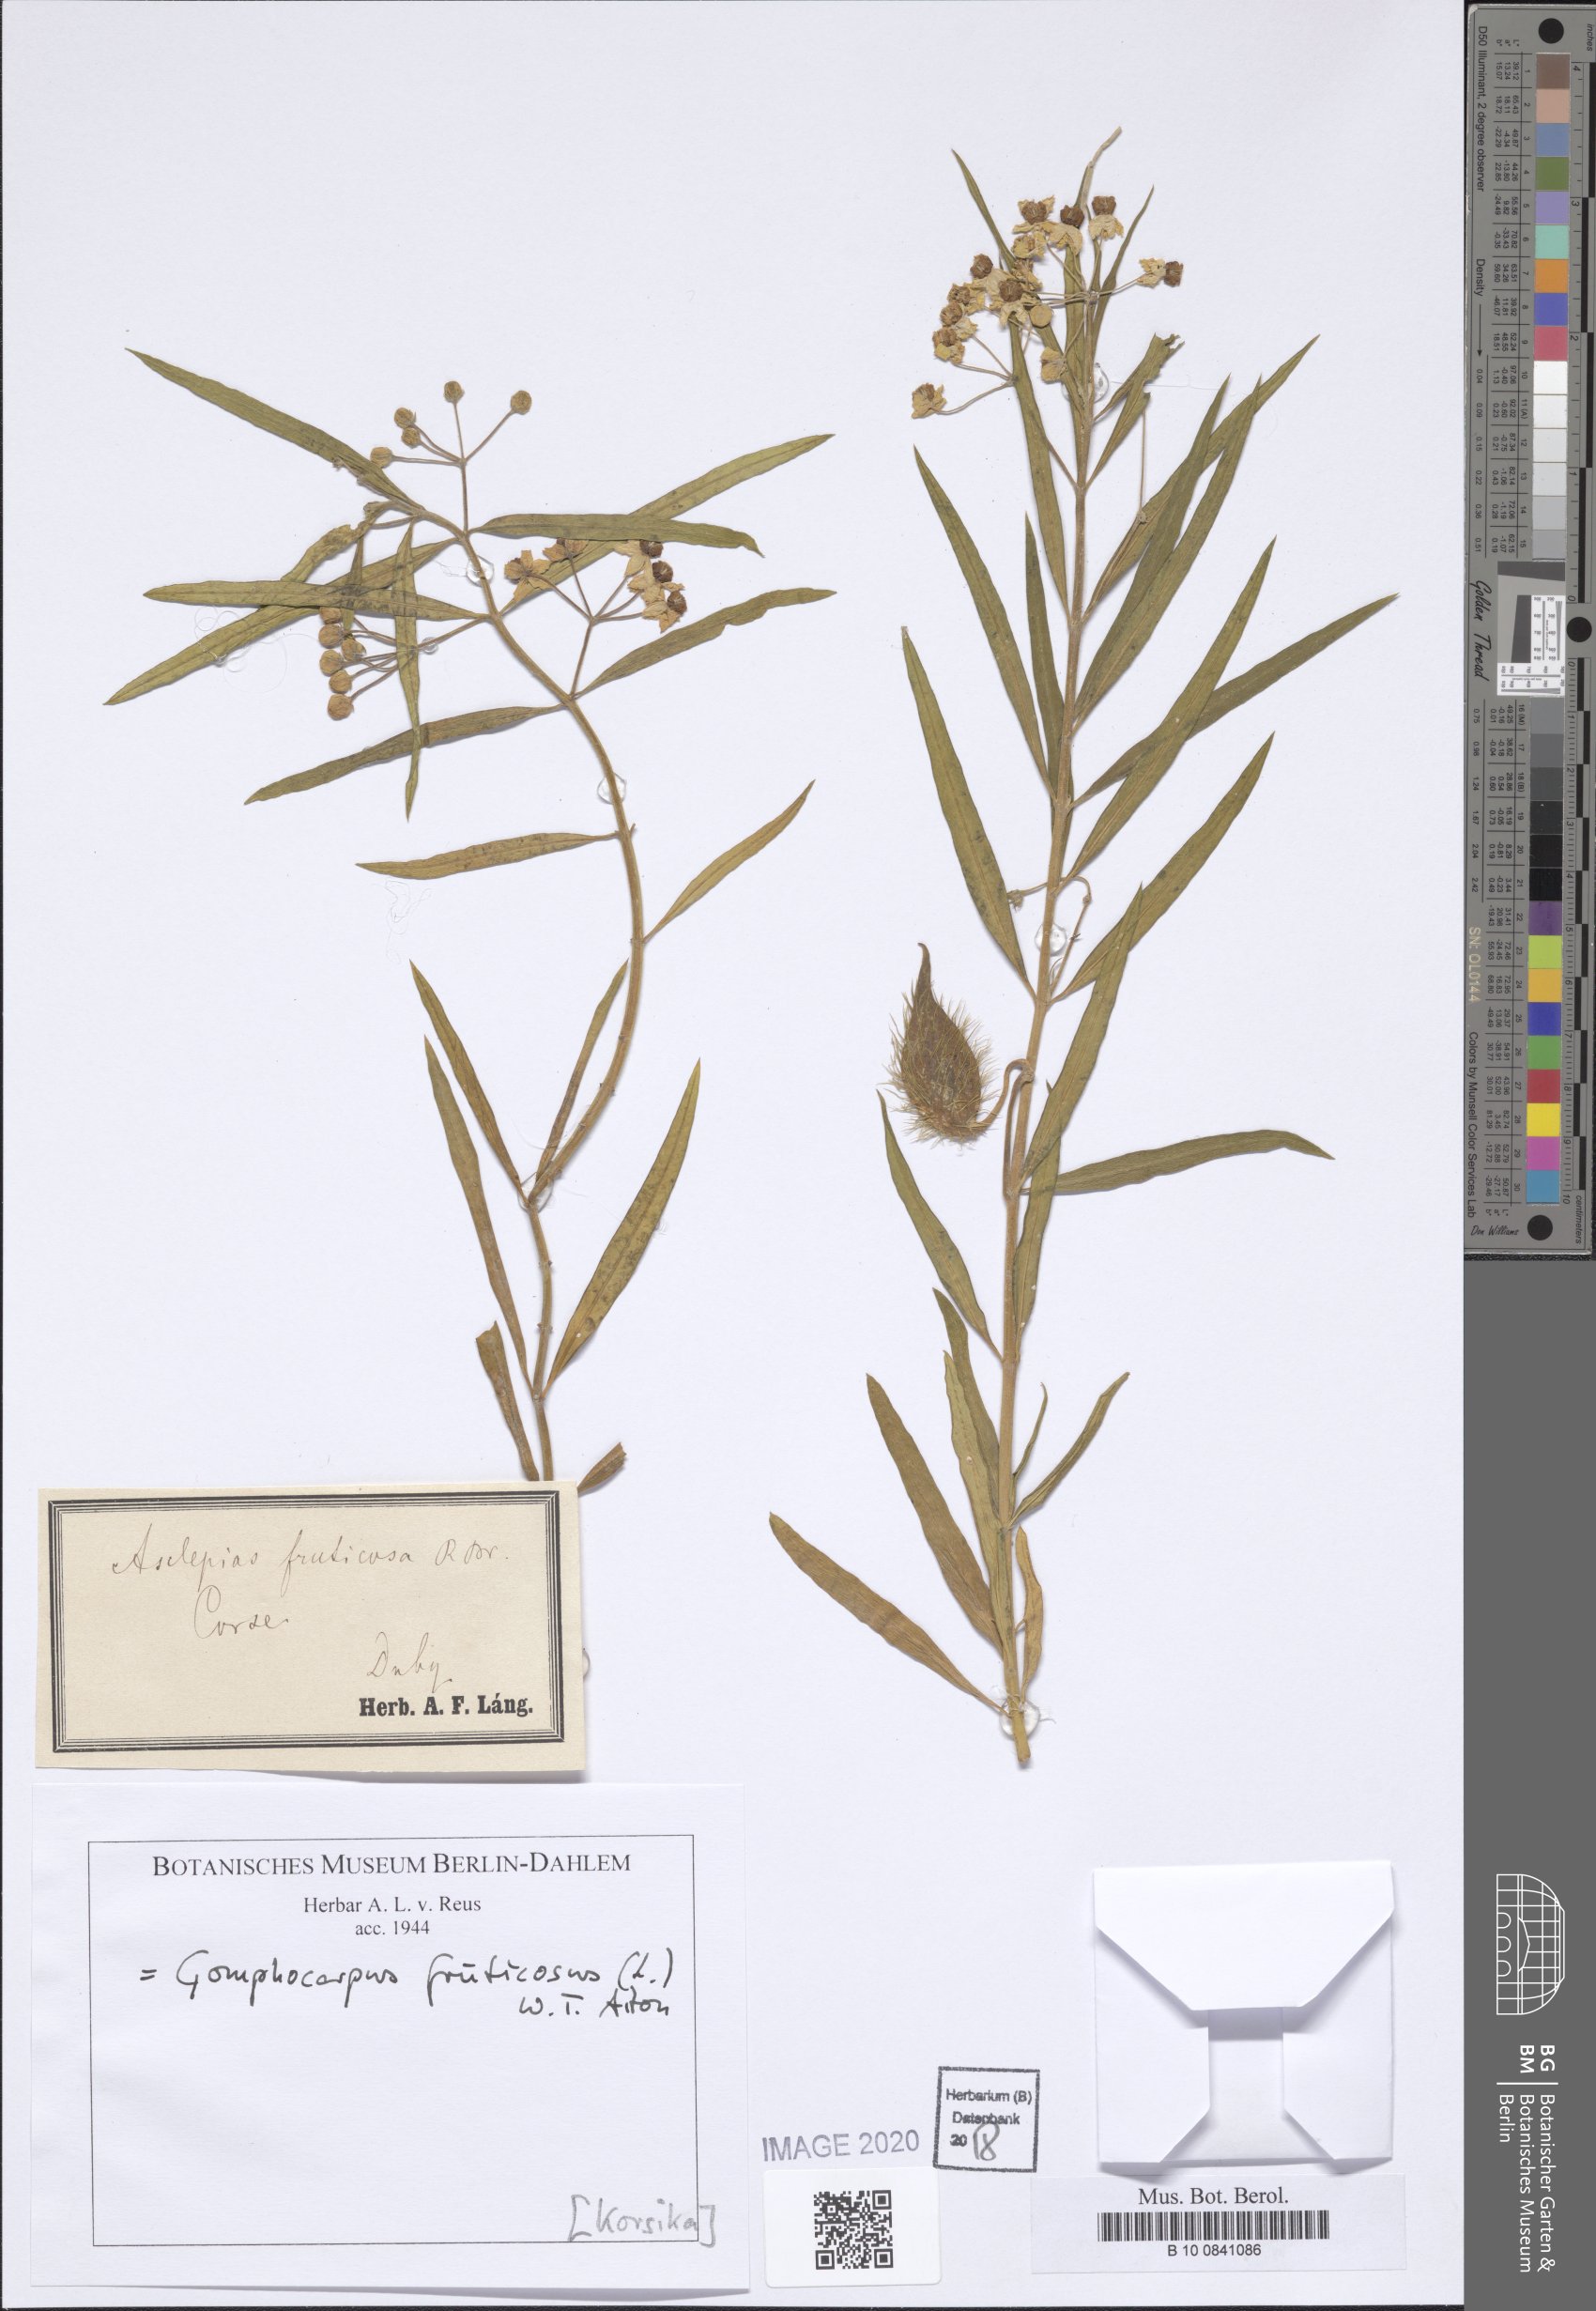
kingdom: Plantae
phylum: Tracheophyta
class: Magnoliopsida
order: Gentianales
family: Apocynaceae
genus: Gomphocarpus
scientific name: Gomphocarpus fruticosus
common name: Milkweed
